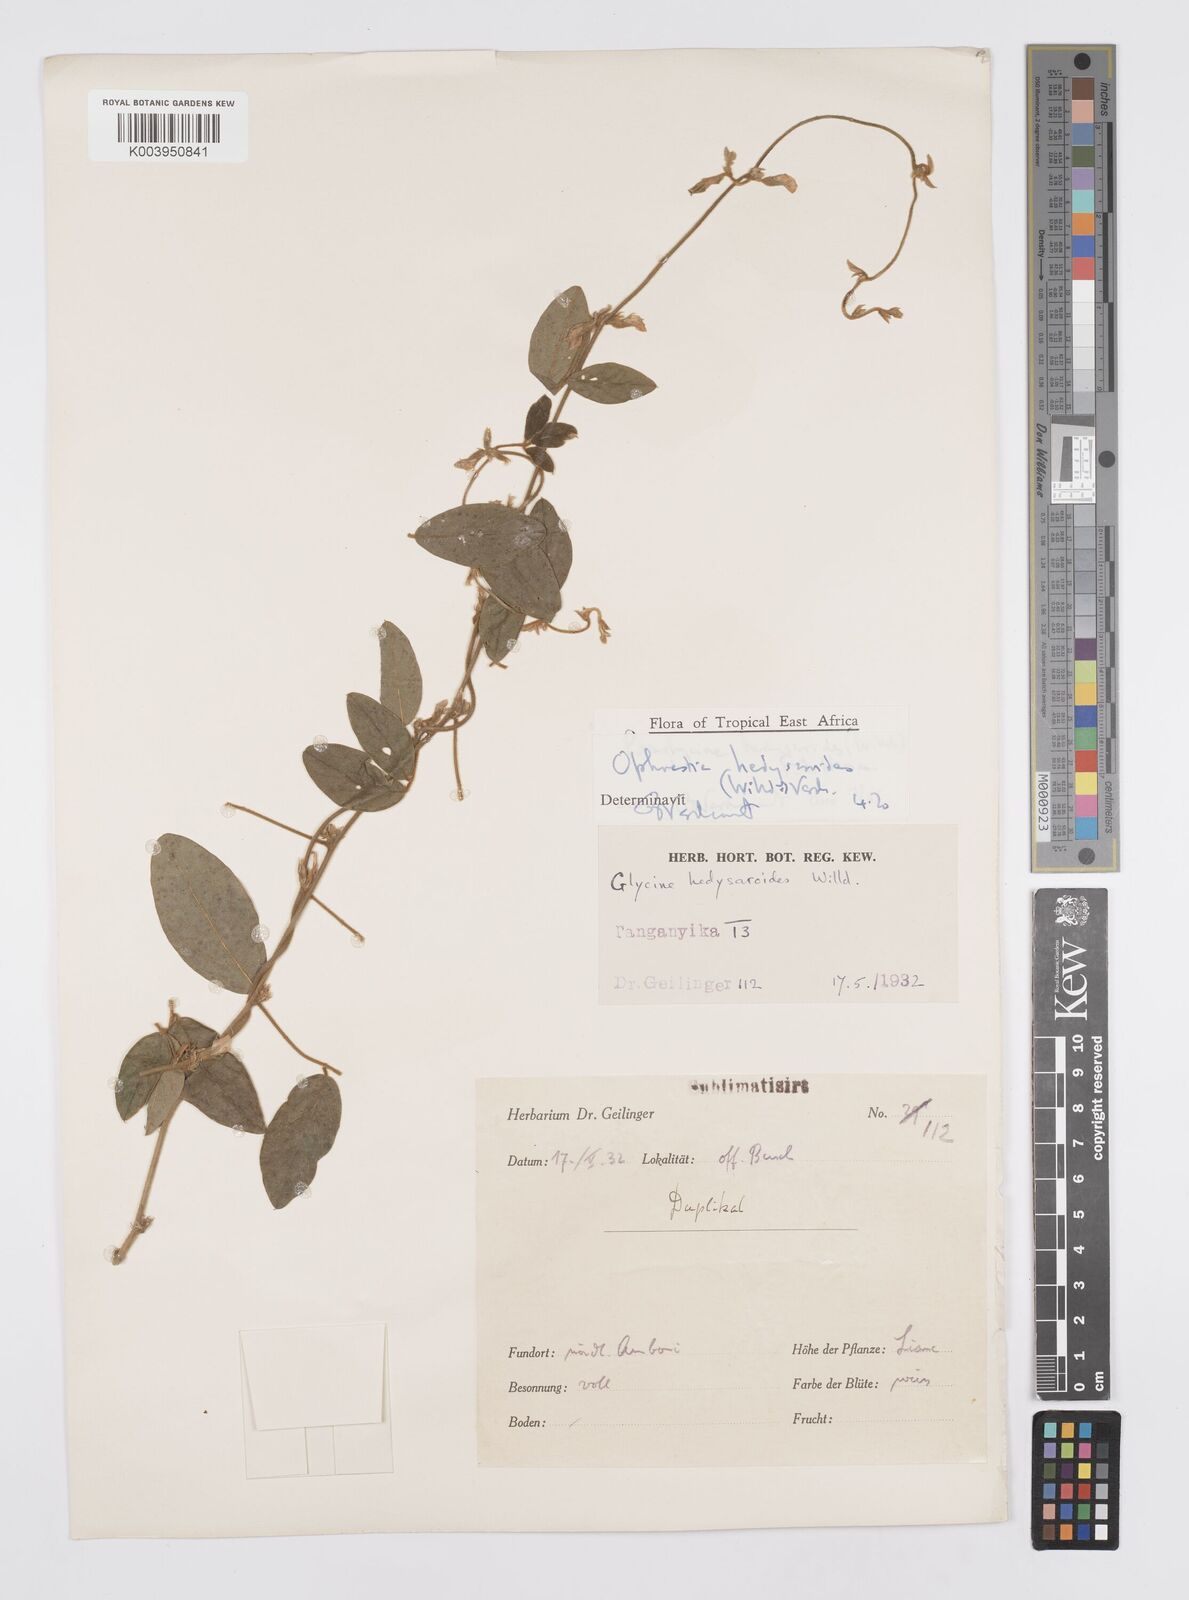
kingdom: Plantae
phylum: Tracheophyta
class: Magnoliopsida
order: Fabales
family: Fabaceae
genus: Ophrestia
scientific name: Ophrestia hedysaroides
